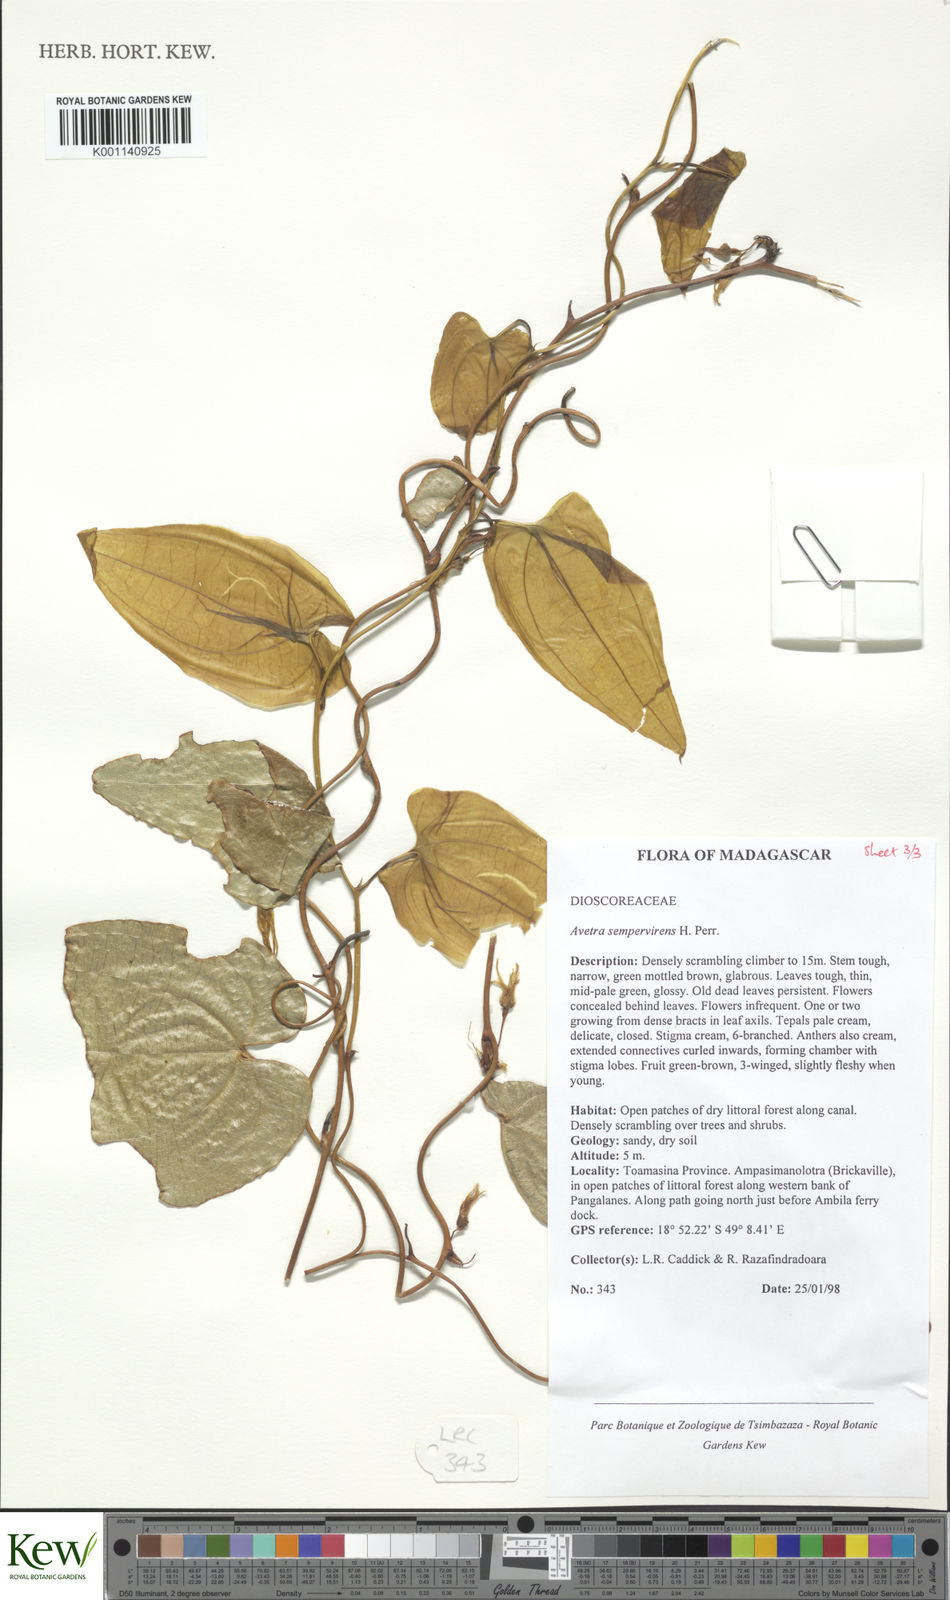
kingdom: Plantae
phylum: Tracheophyta
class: Liliopsida
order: Dioscoreales
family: Dioscoreaceae
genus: Trichopus
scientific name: Trichopus sempervirens
